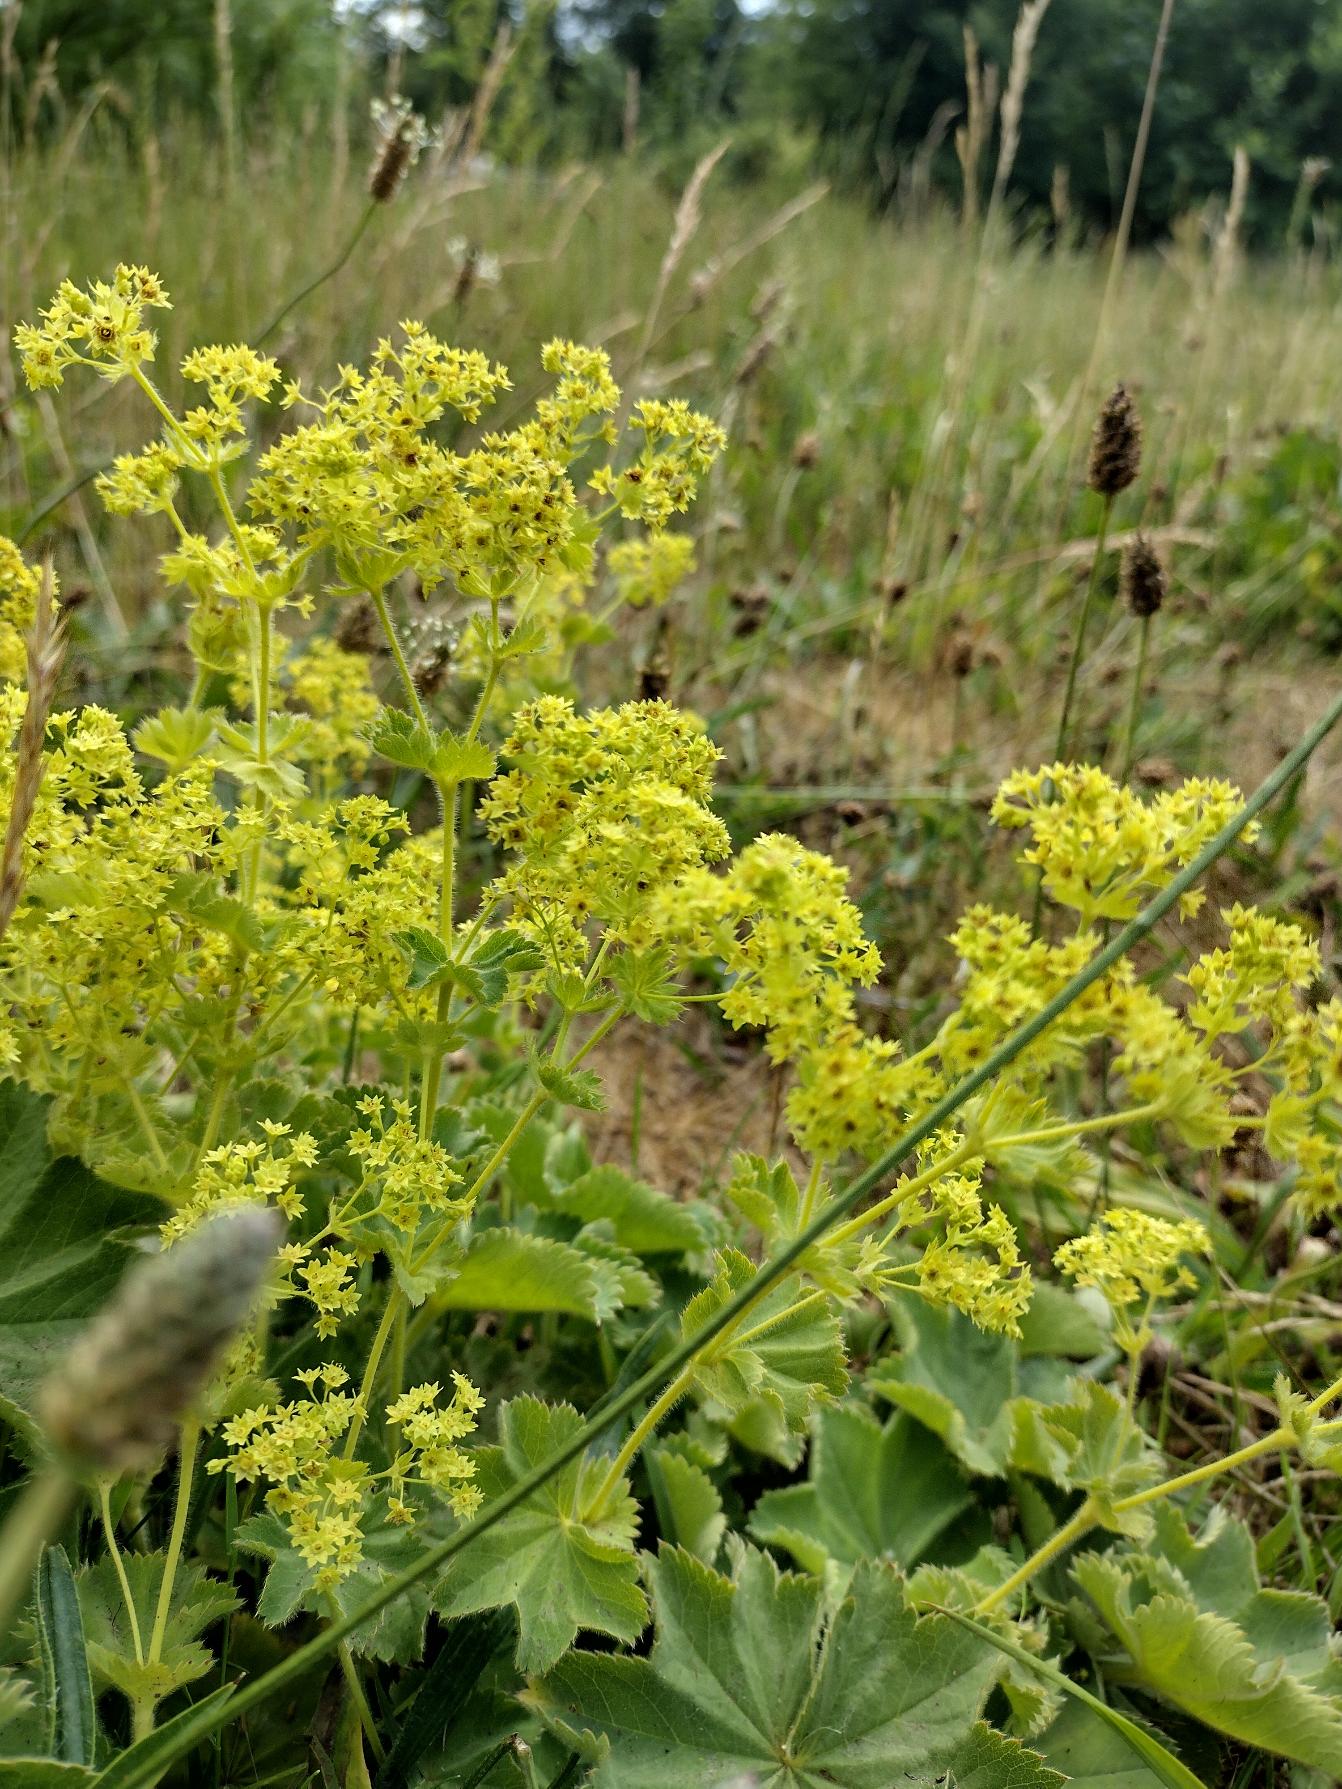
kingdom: Plantae
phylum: Tracheophyta
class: Magnoliopsida
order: Rosales
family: Rosaceae
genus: Alchemilla
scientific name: Alchemilla mollis
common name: Lådden løvefod
